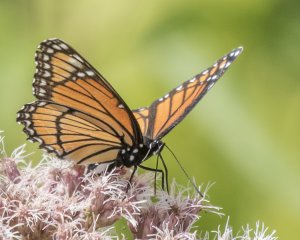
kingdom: Animalia
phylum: Arthropoda
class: Insecta
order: Lepidoptera
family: Nymphalidae
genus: Limenitis
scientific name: Limenitis archippus
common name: Viceroy
